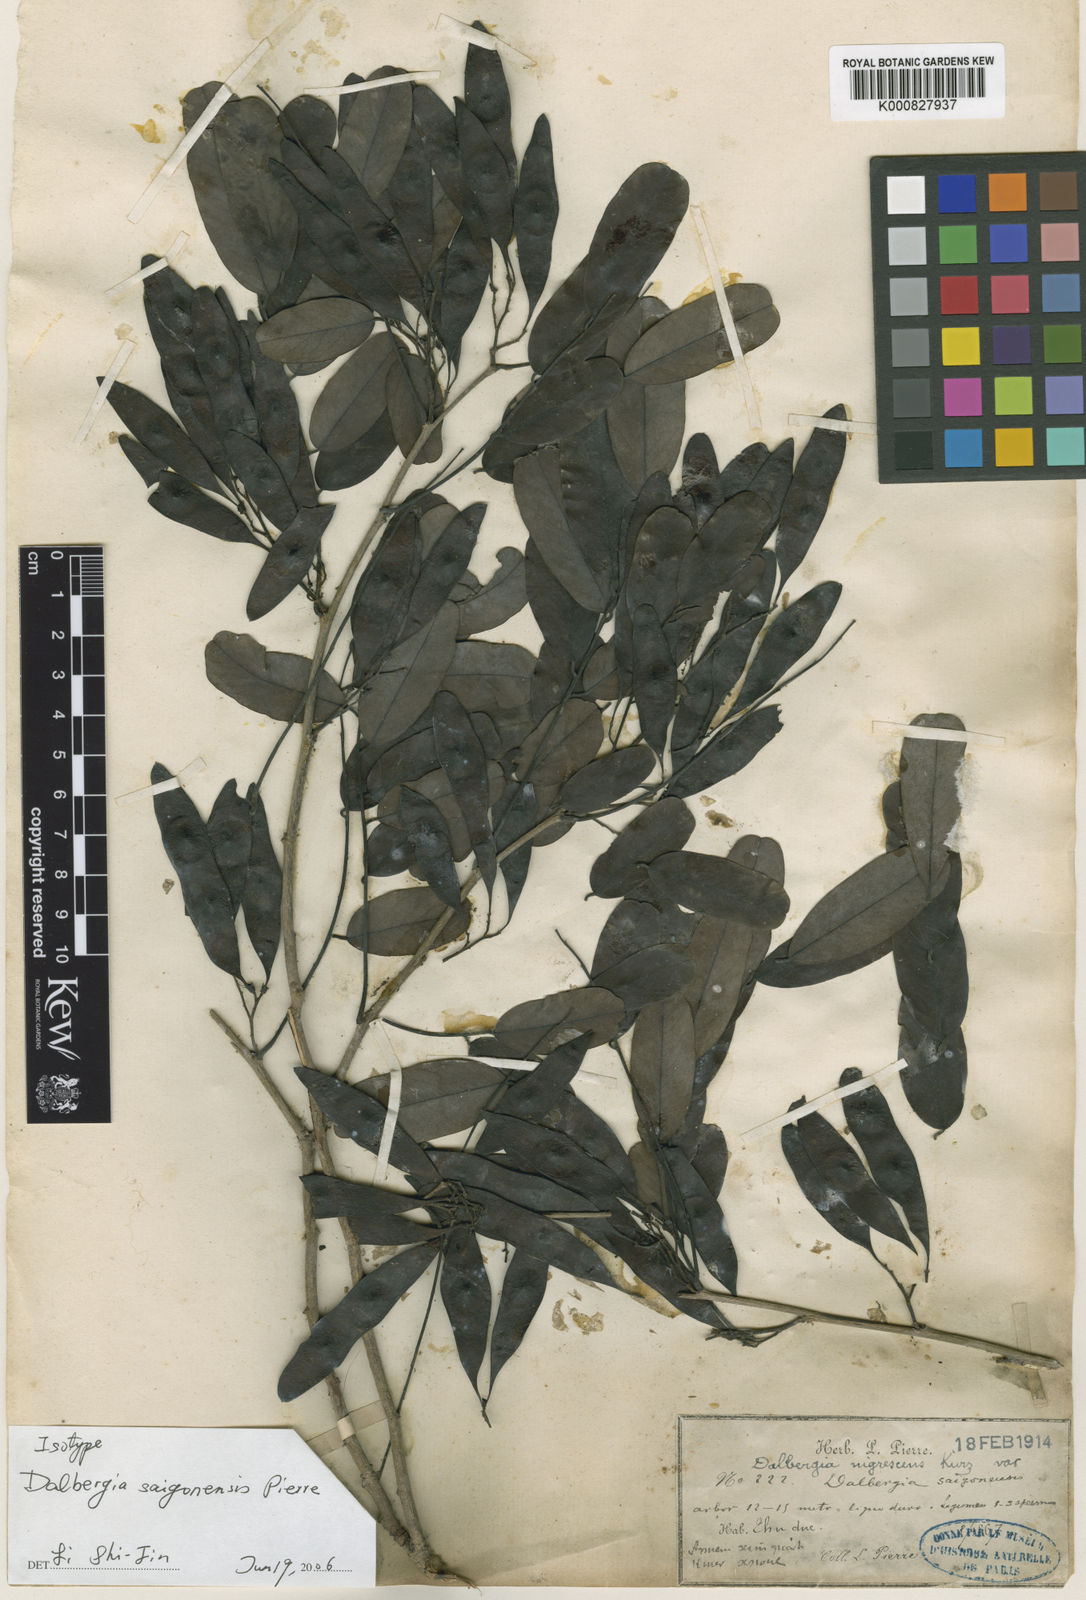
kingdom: Plantae
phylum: Tracheophyta
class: Magnoliopsida
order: Fabales
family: Fabaceae
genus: Dalbergia
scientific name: Dalbergia nigrescens
